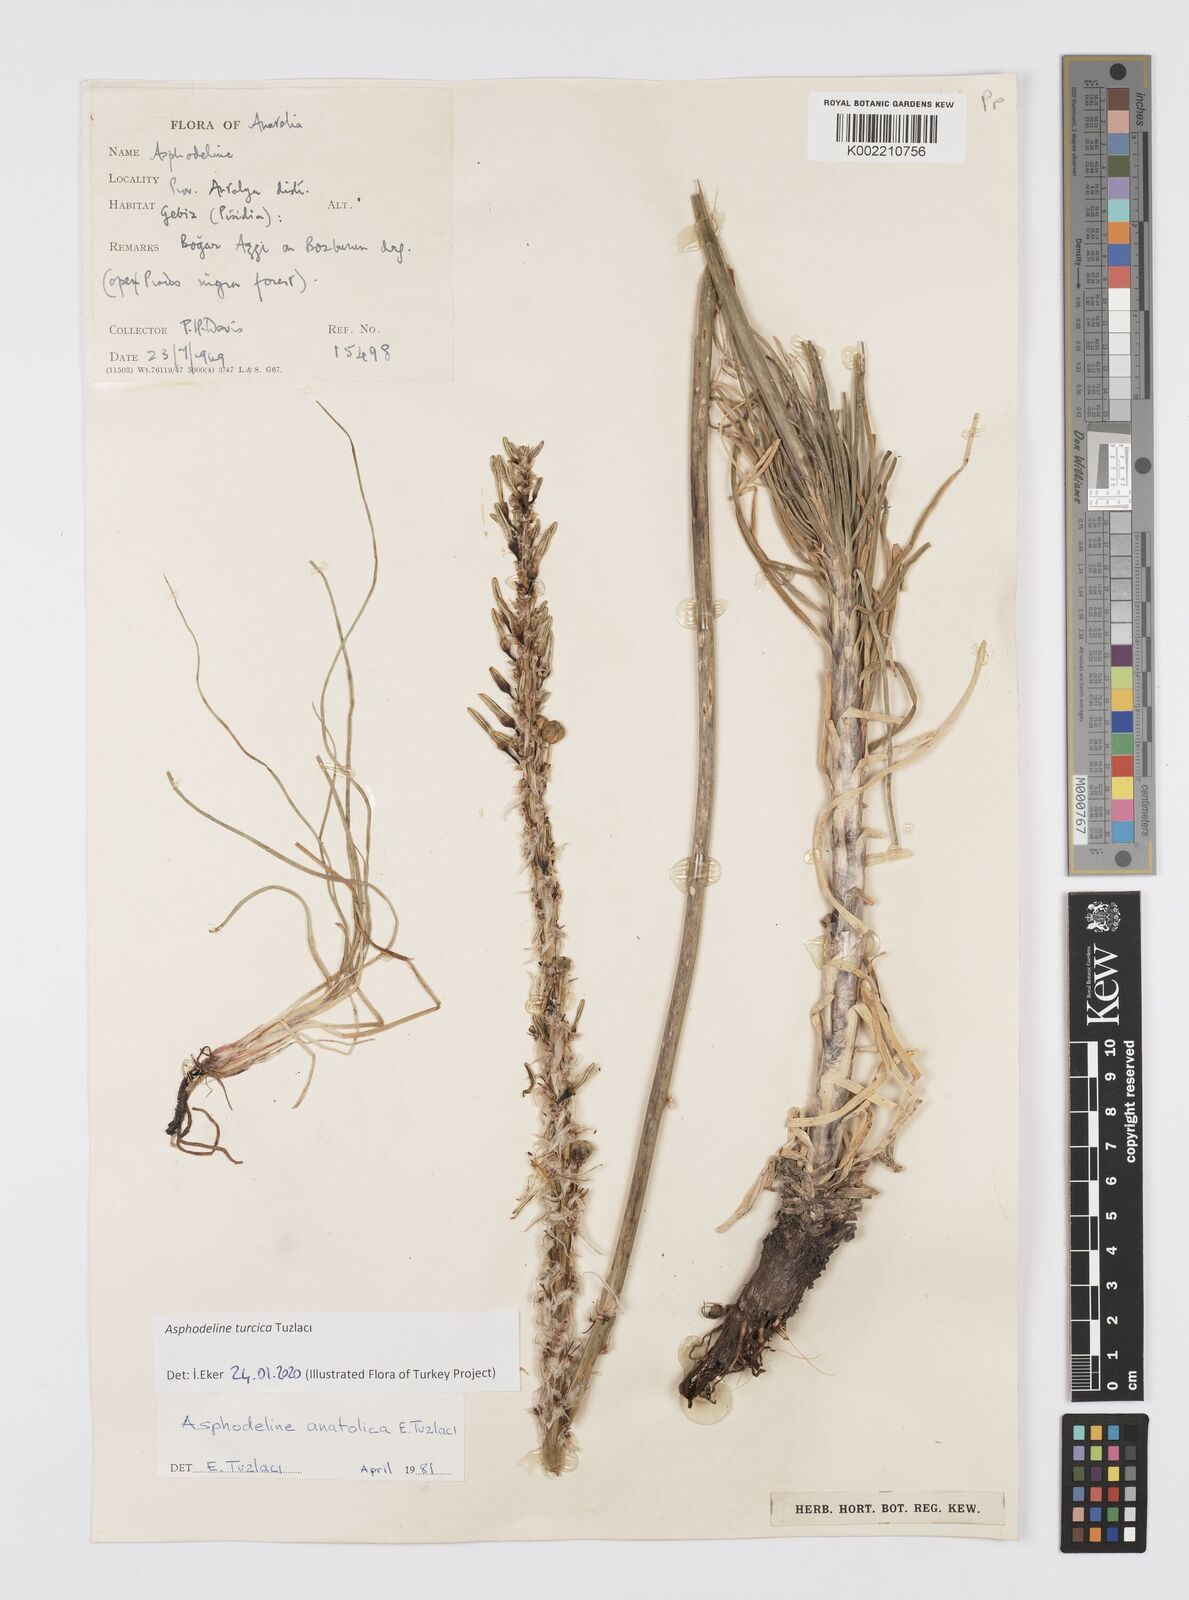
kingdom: Plantae
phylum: Tracheophyta
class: Liliopsida
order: Asparagales
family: Asphodelaceae
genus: Asphodeline
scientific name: Asphodeline turcica
